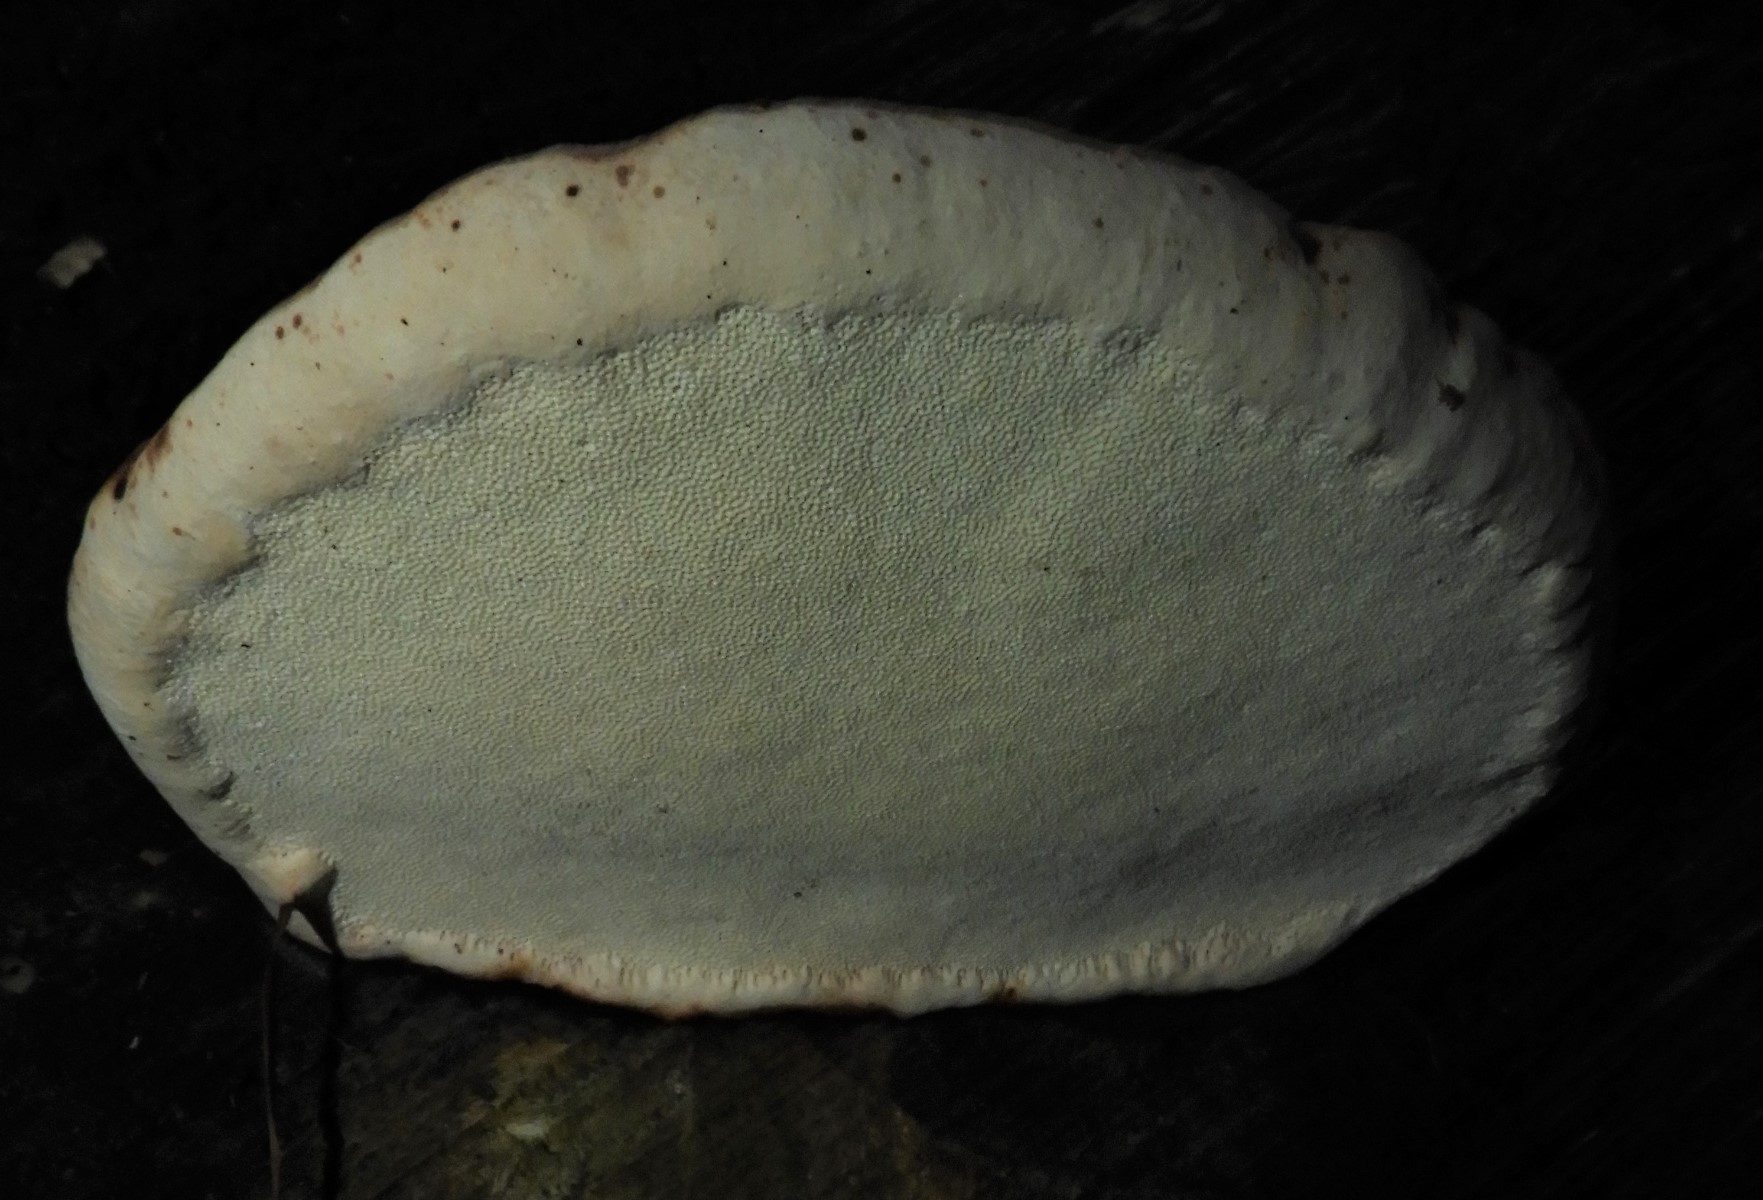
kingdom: Fungi
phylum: Basidiomycota
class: Agaricomycetes
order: Polyporales
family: Fomitopsidaceae
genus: Fomitopsis
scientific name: Fomitopsis pinicola
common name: randbæltet hovporesvamp
